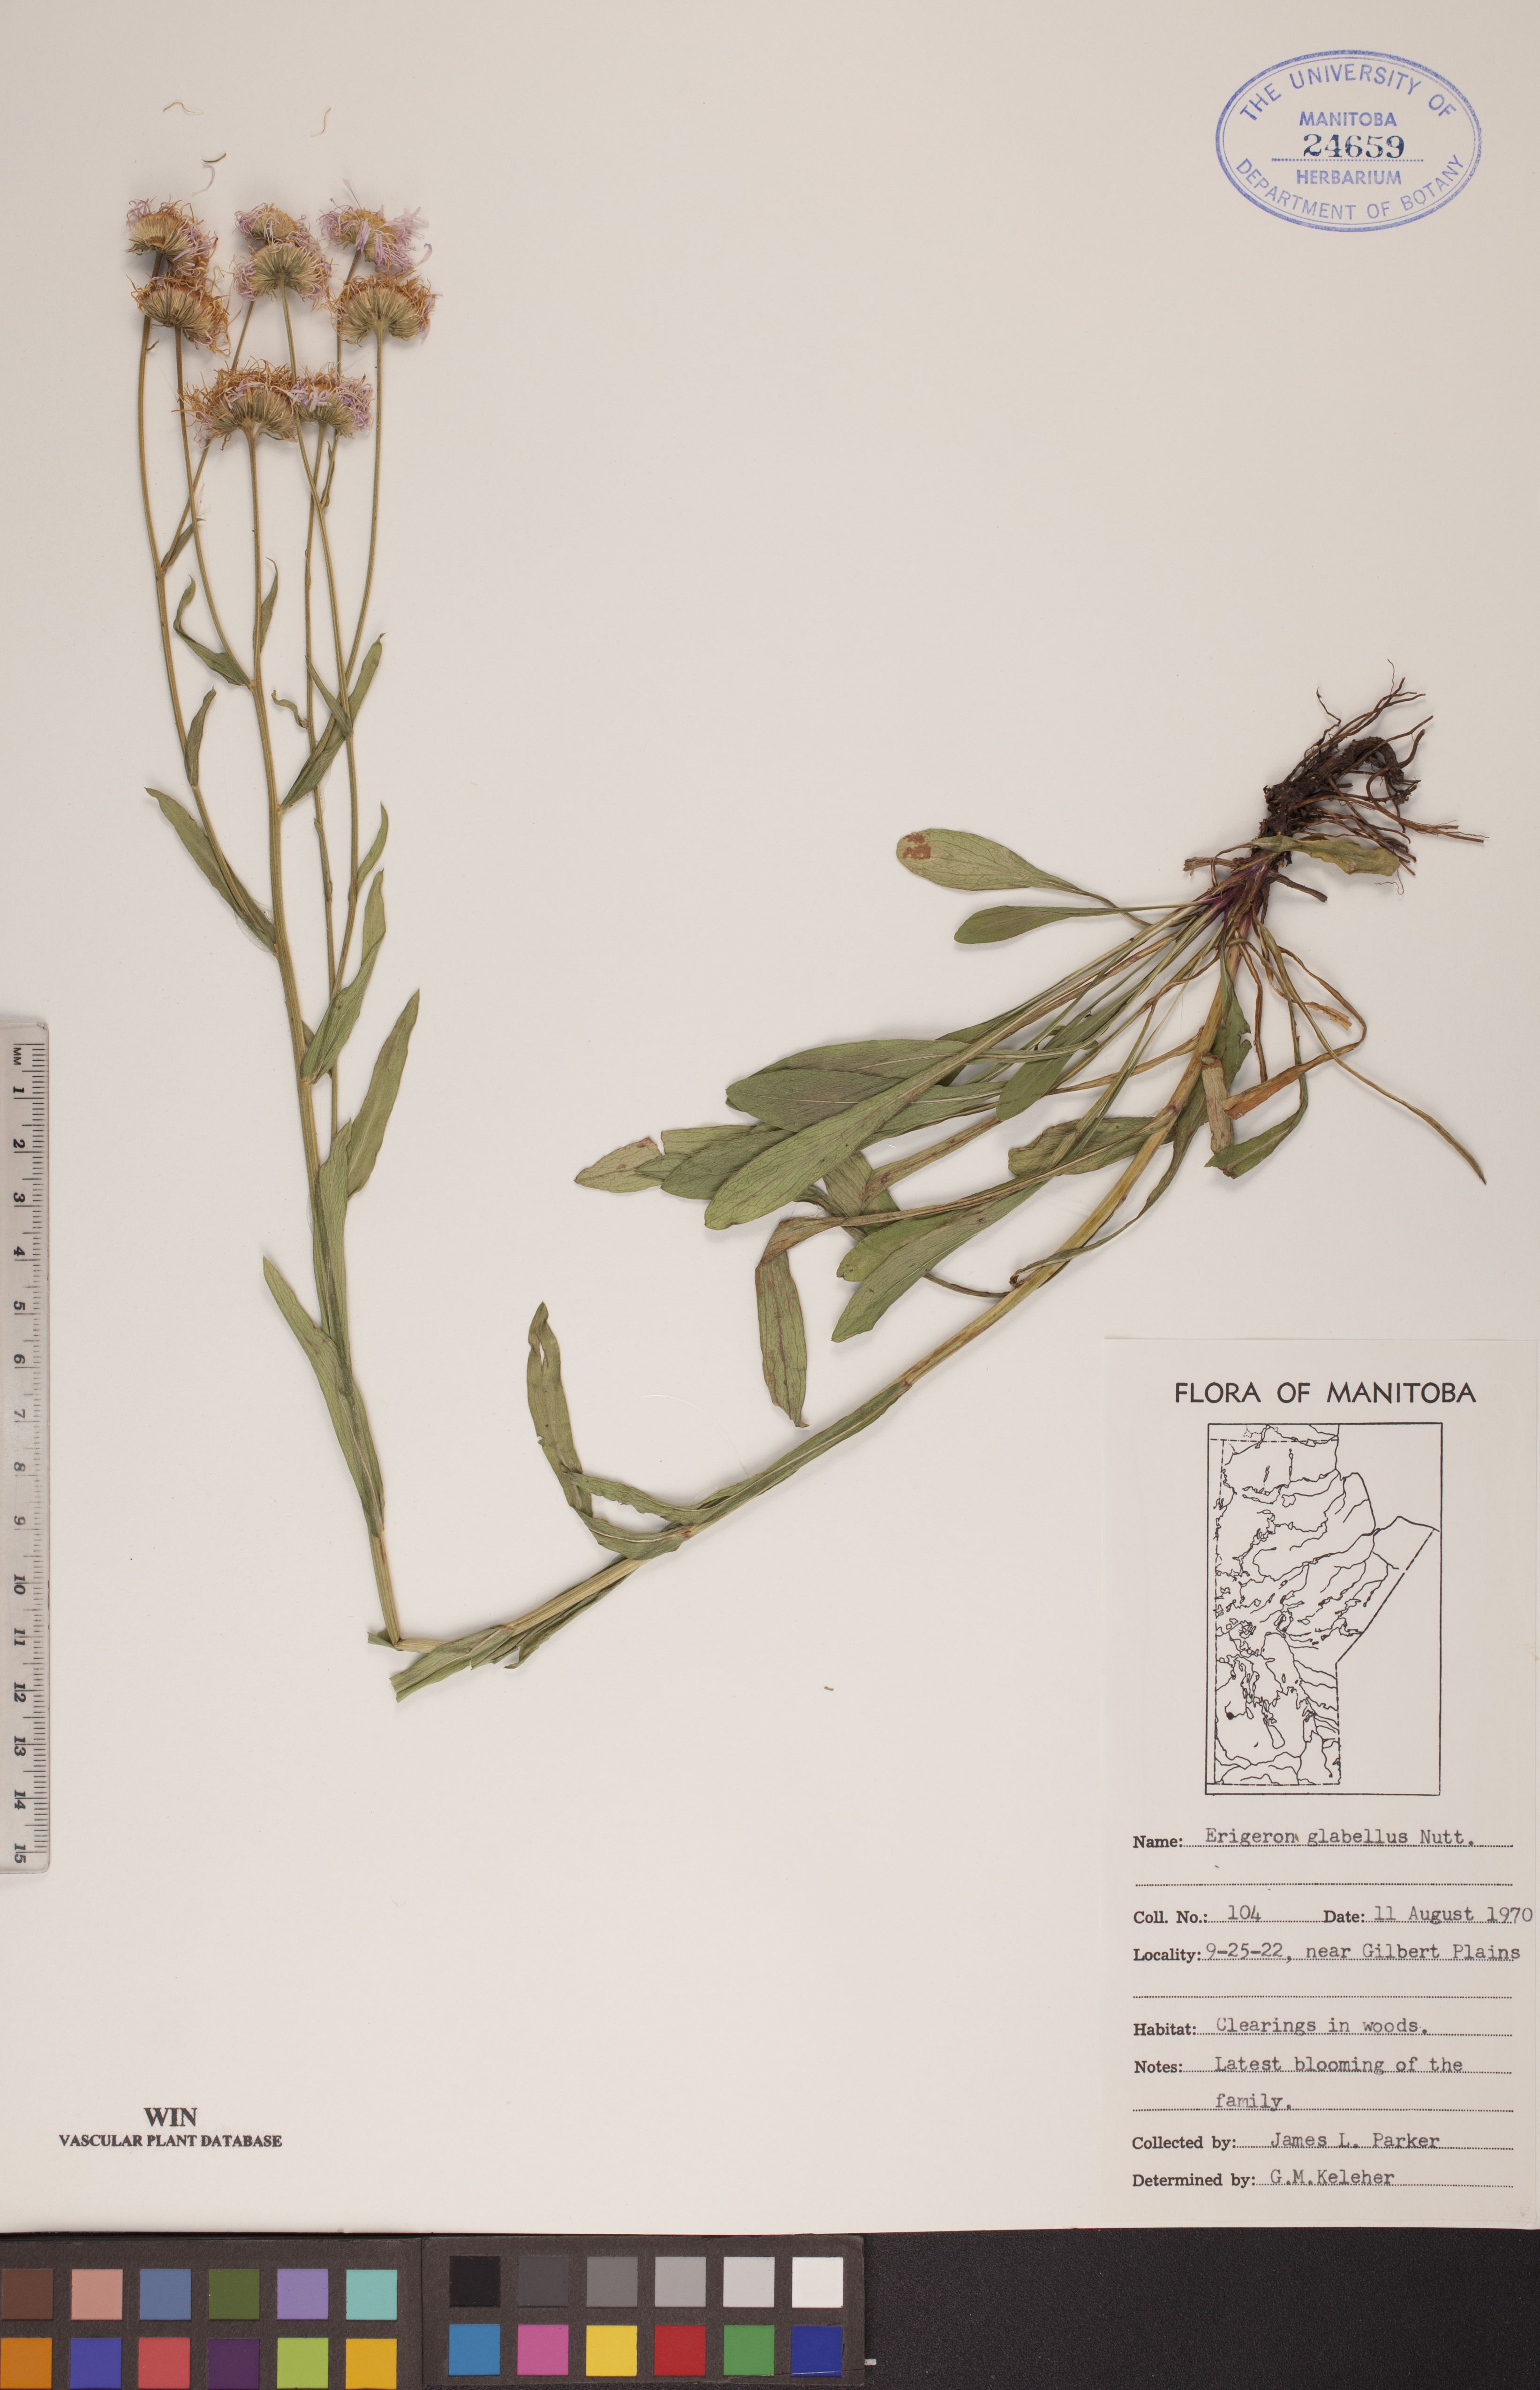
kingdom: Plantae
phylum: Tracheophyta
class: Magnoliopsida
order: Asterales
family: Asteraceae
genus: Erigeron
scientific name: Erigeron glabellus
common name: Smooth fleabane
